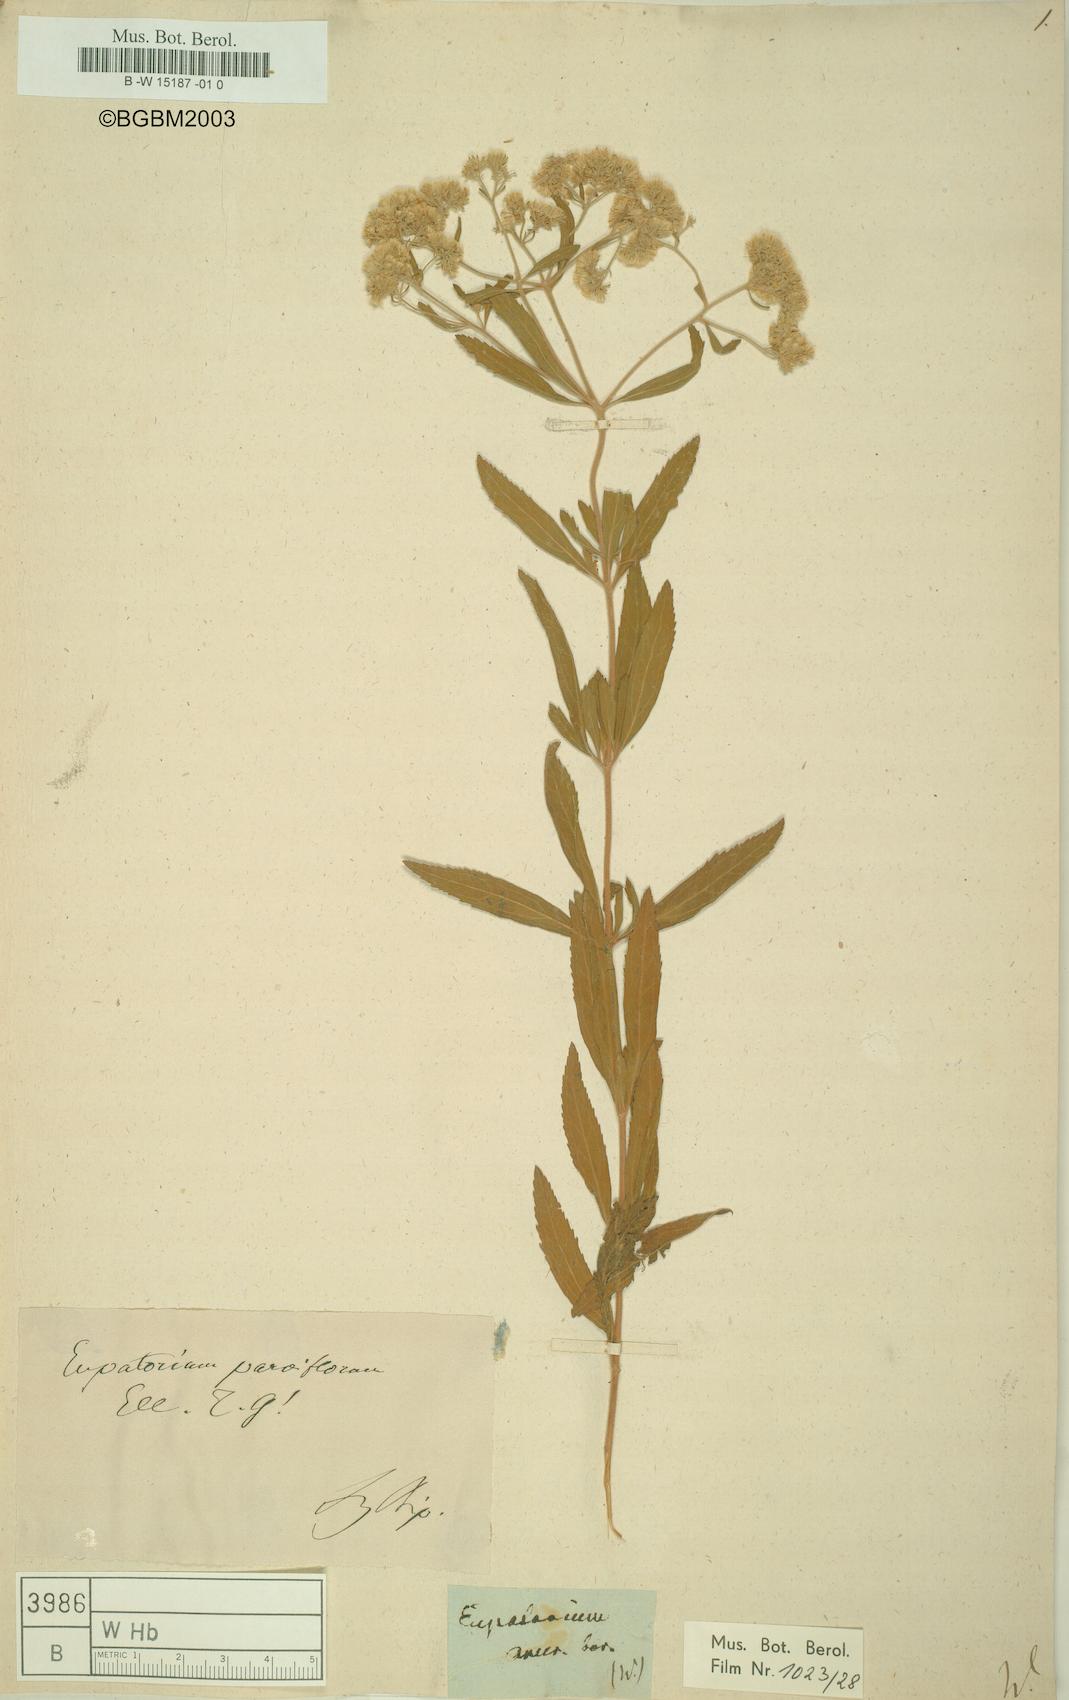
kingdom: Plantae
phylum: Tracheophyta
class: Magnoliopsida
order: Asterales
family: Asteraceae
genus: Eupatorium
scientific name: Eupatorium
